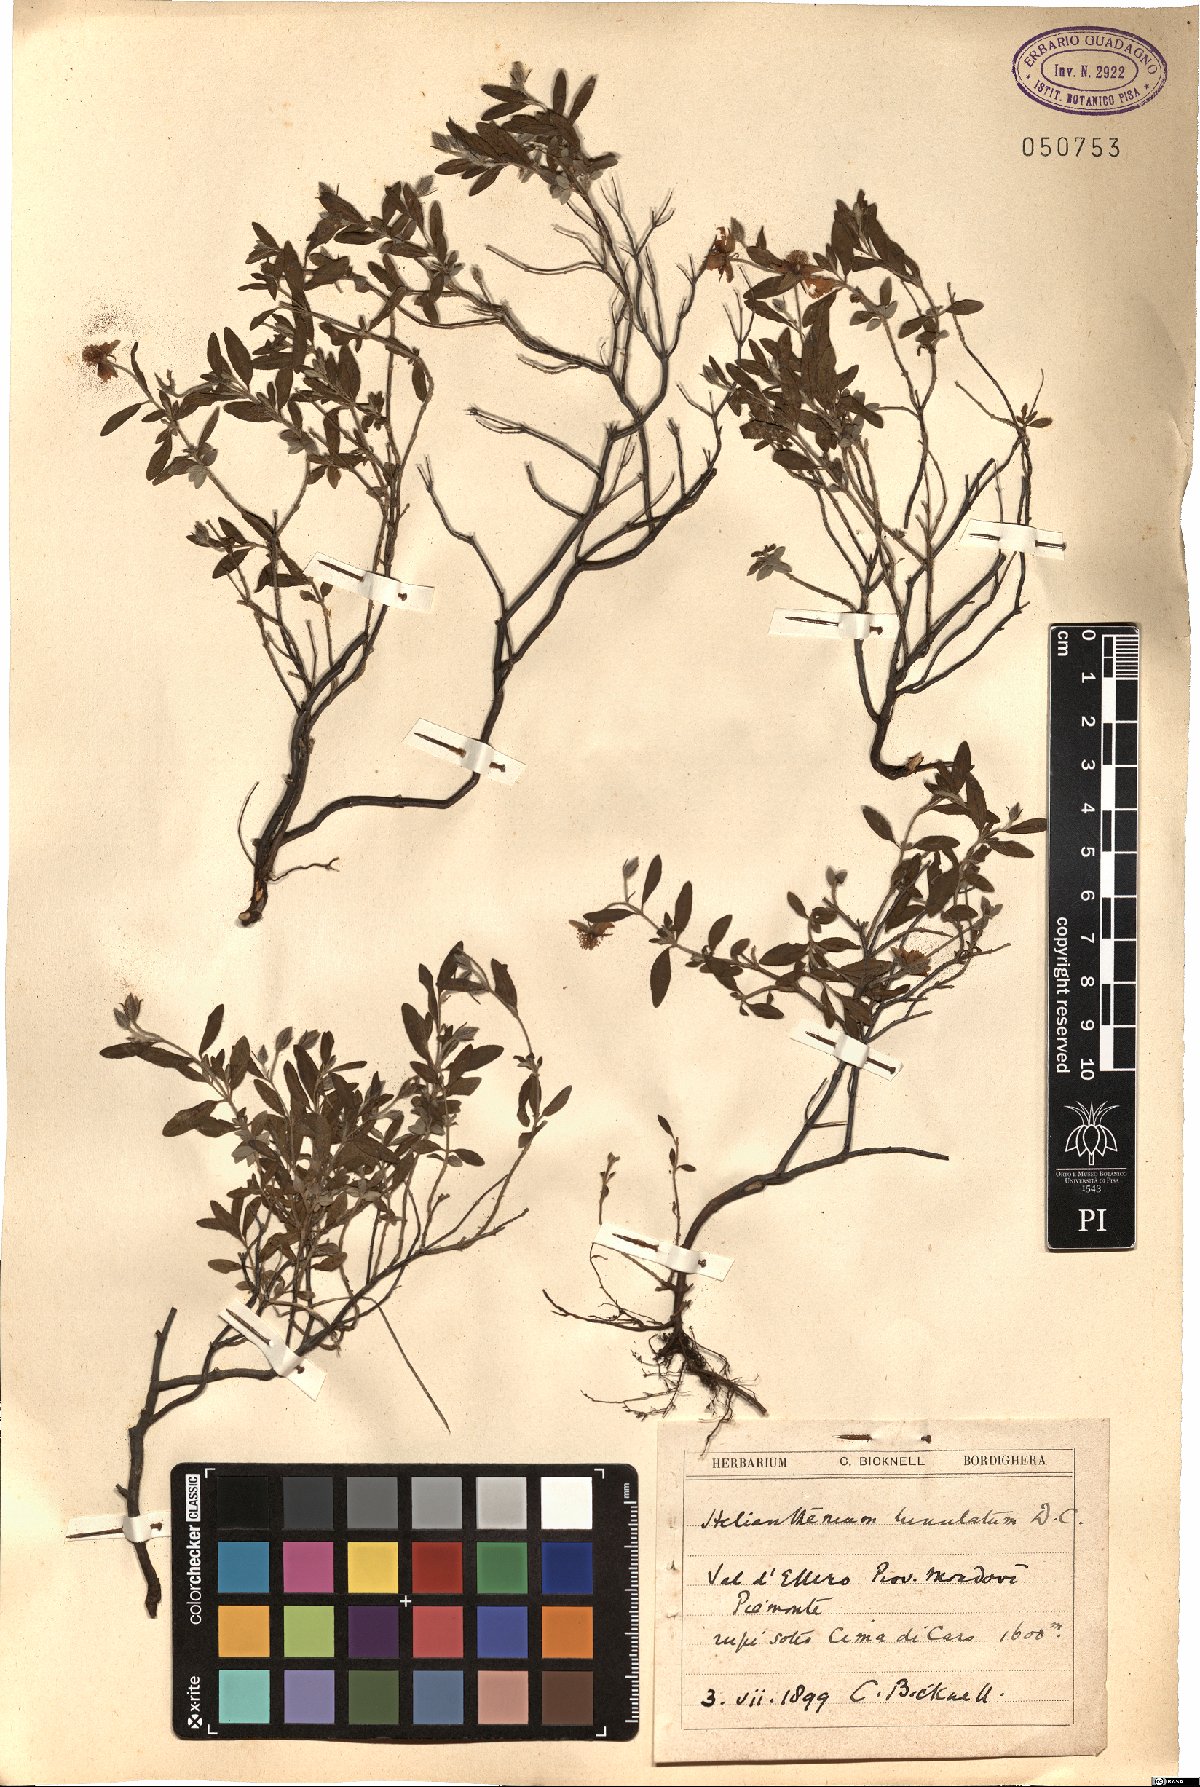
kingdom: Plantae
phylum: Tracheophyta
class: Magnoliopsida
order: Malvales
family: Cistaceae
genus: Helianthemum
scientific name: Helianthemum lunulatum
